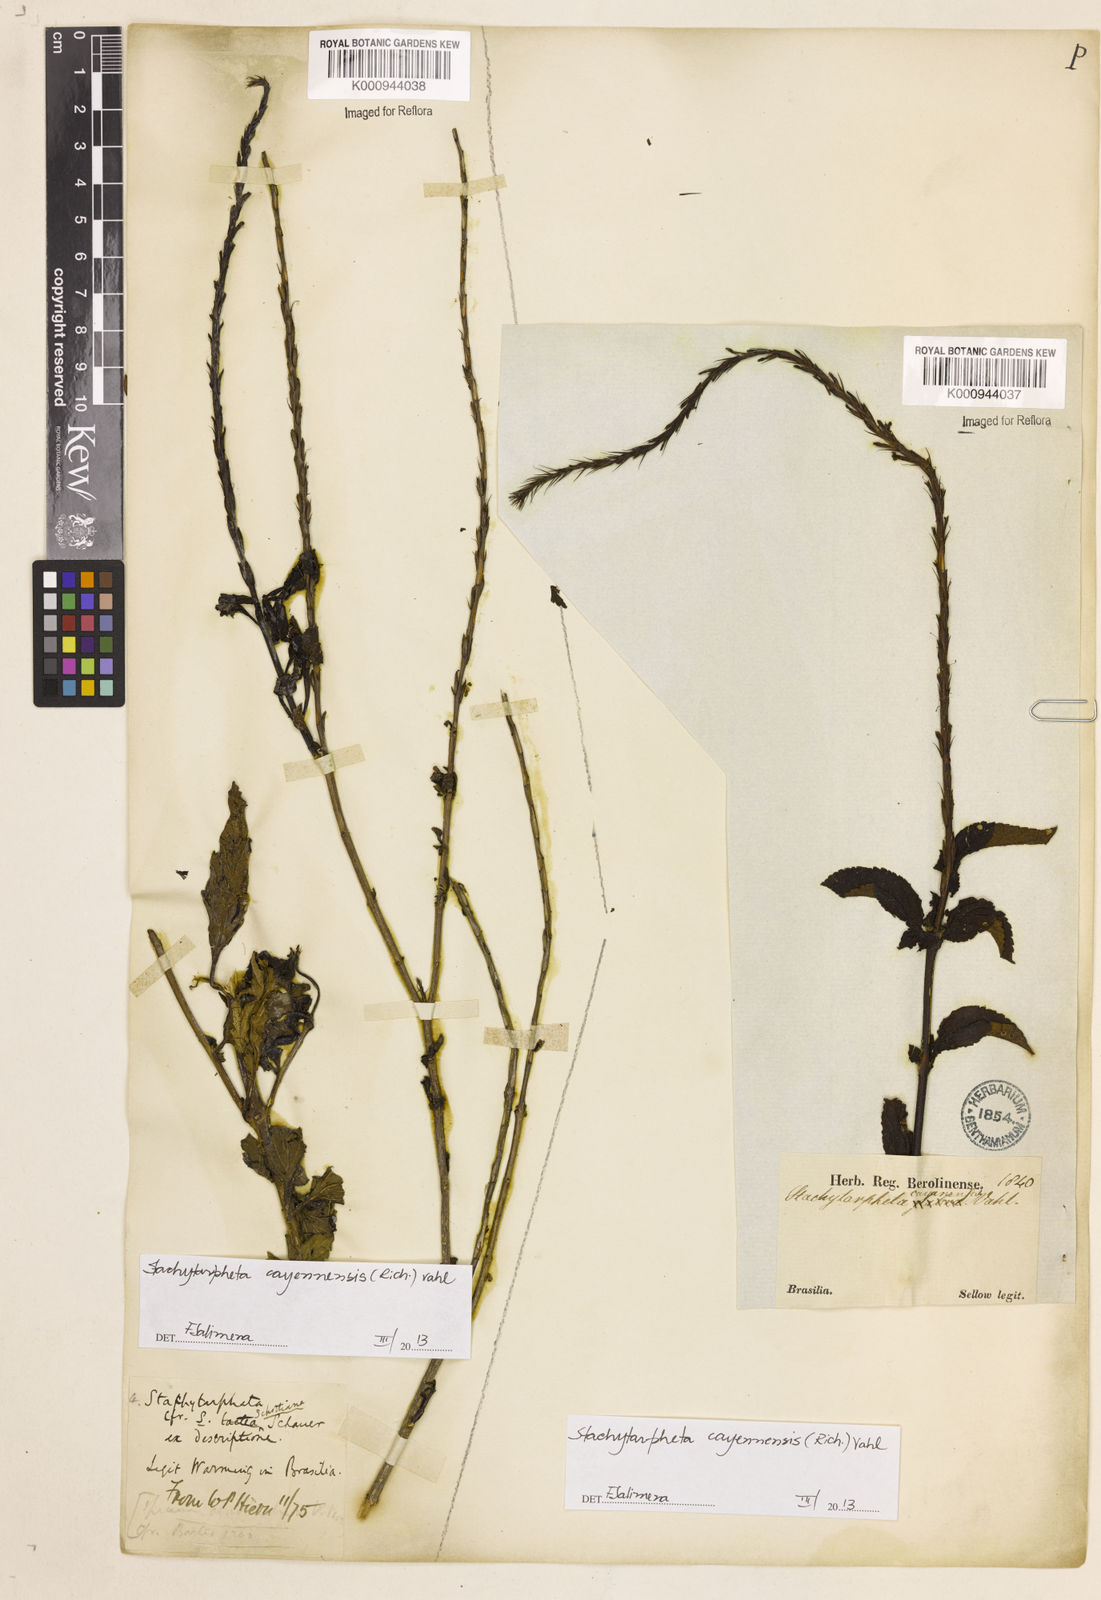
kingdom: Plantae
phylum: Tracheophyta
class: Magnoliopsida
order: Lamiales
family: Verbenaceae
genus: Aloysia
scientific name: Aloysia
